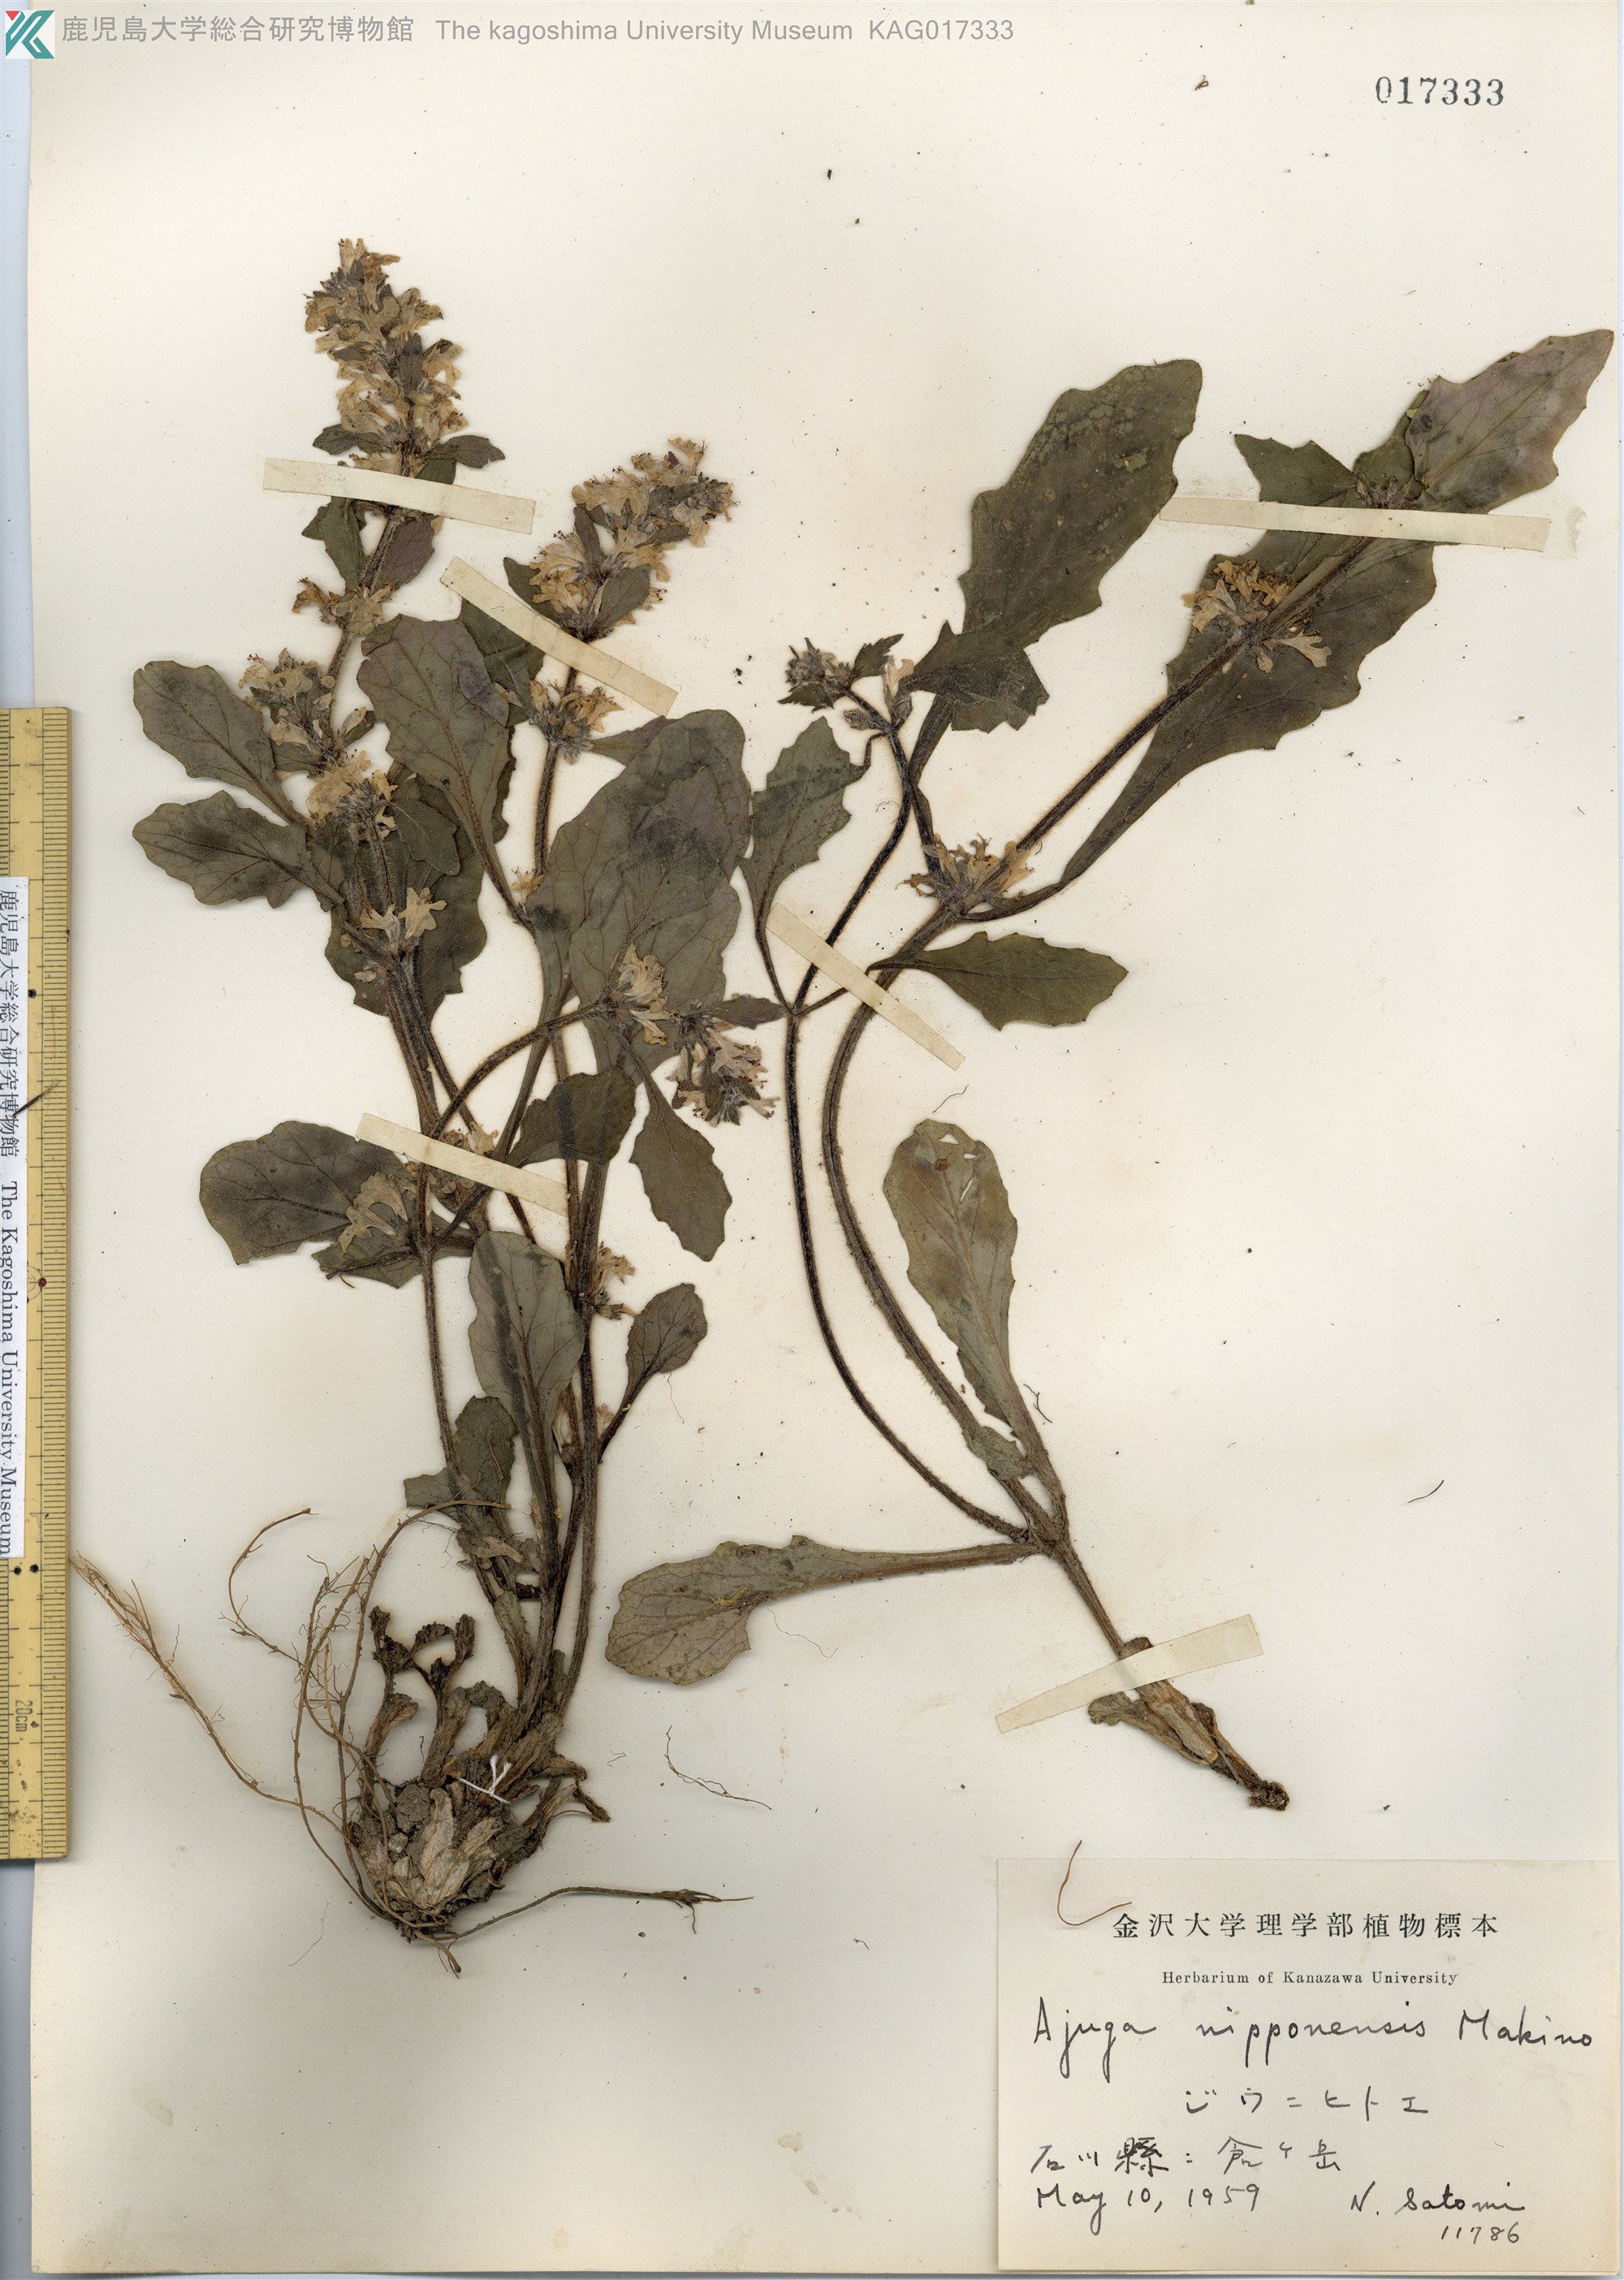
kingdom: Plantae
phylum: Tracheophyta
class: Magnoliopsida
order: Lamiales
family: Lamiaceae
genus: Ajuga
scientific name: Ajuga nipponensis
